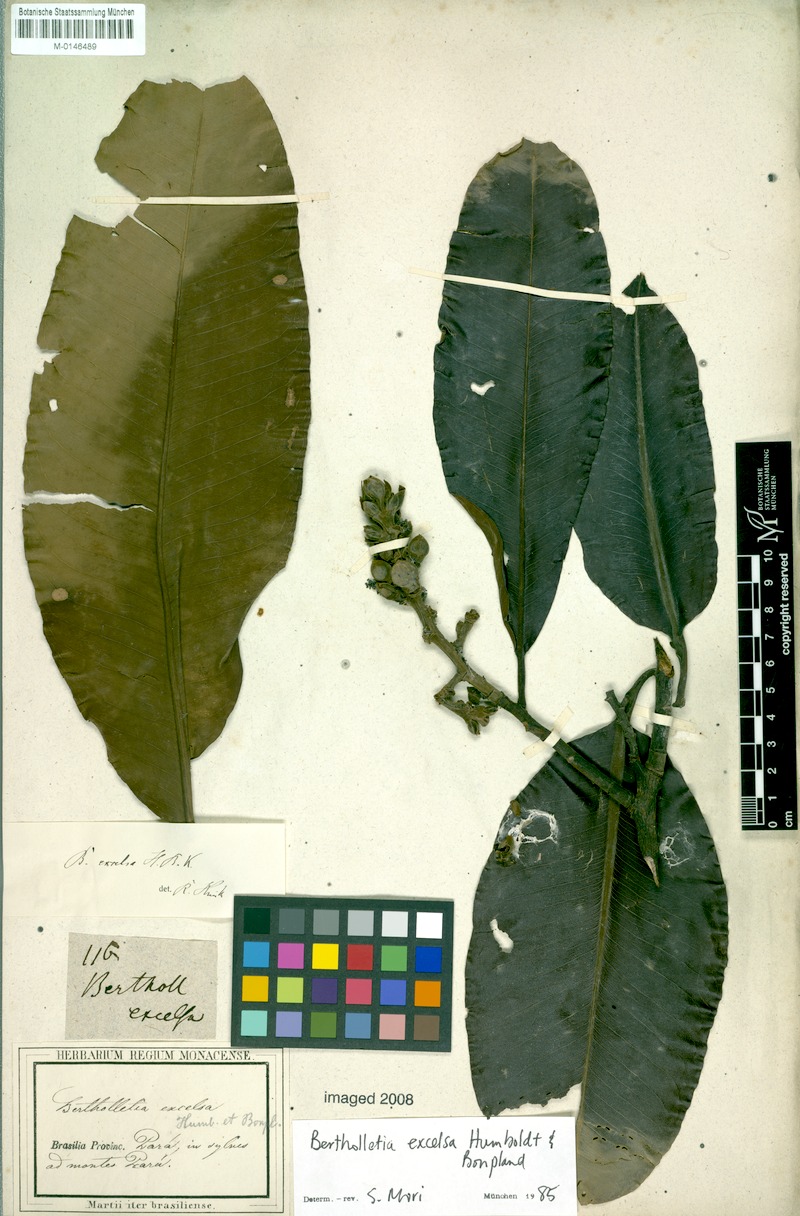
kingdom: Plantae
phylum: Tracheophyta
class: Magnoliopsida
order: Ericales
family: Lecythidaceae
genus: Bertholletia
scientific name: Bertholletia excelsa
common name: Brazil-nut tree
